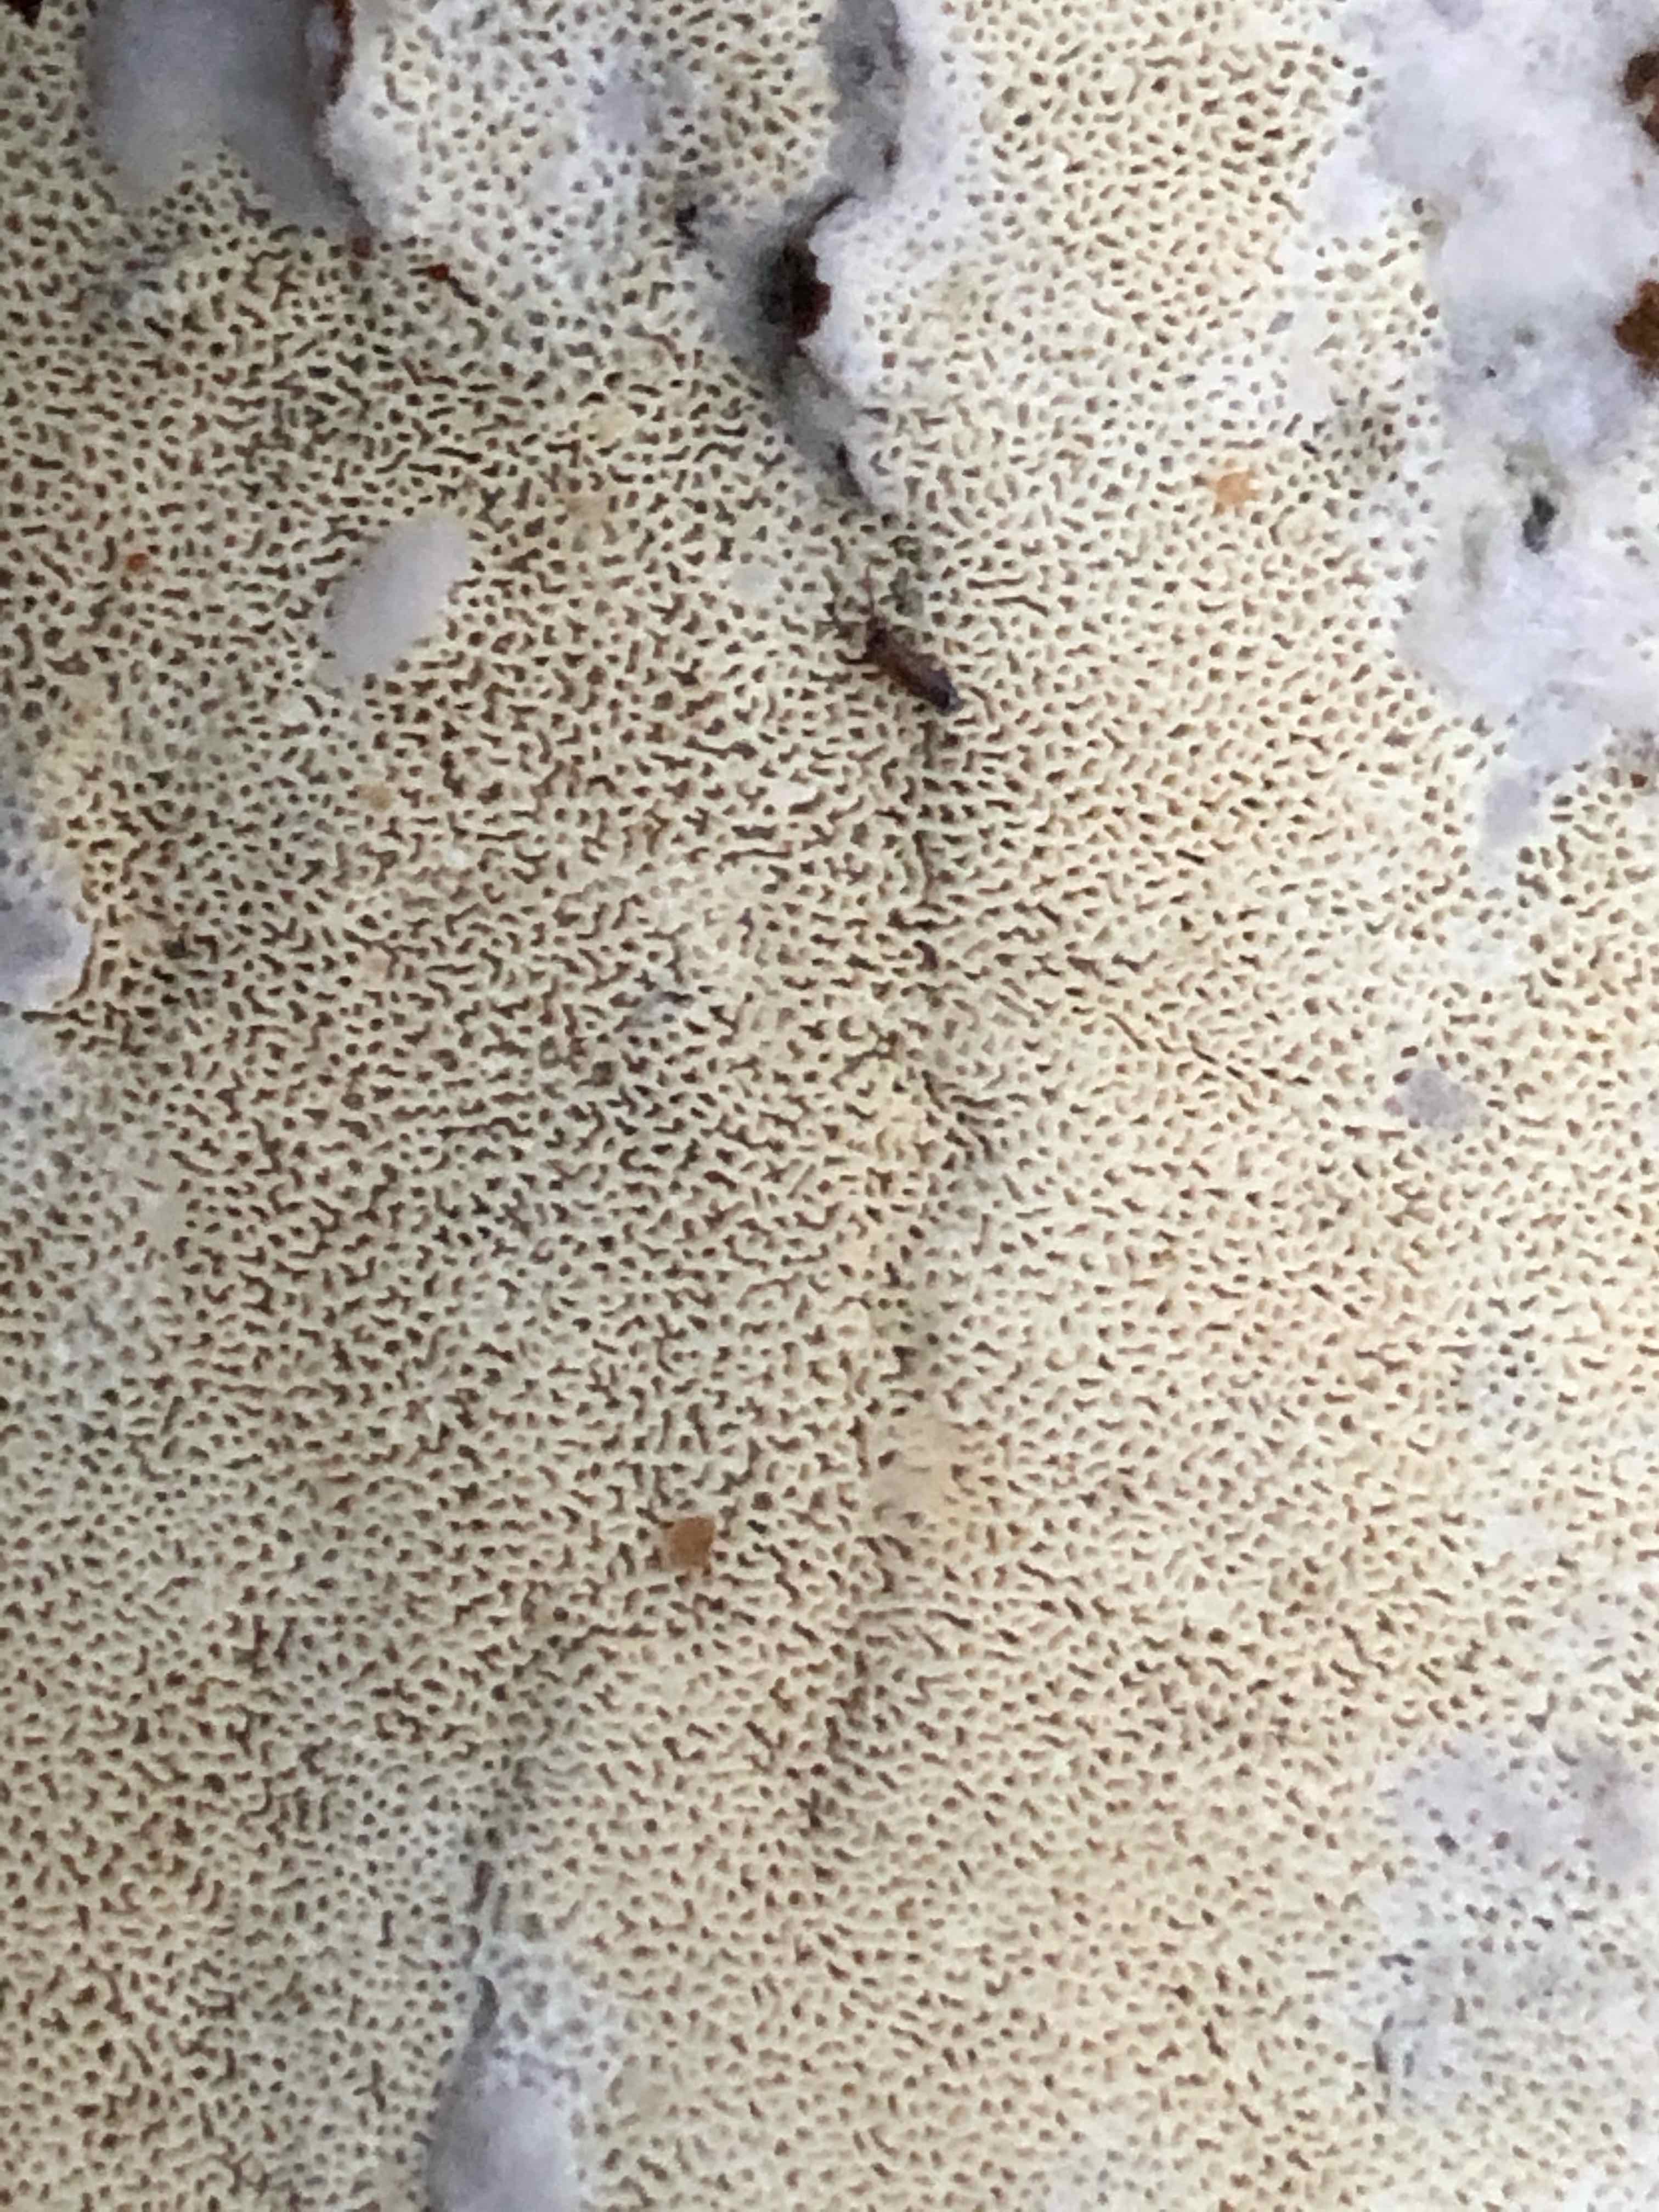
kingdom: Fungi
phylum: Basidiomycota
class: Agaricomycetes
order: Hymenochaetales
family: Schizoporaceae
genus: Xylodon
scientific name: Xylodon subtropicus
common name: labyrint-tandsvamp
